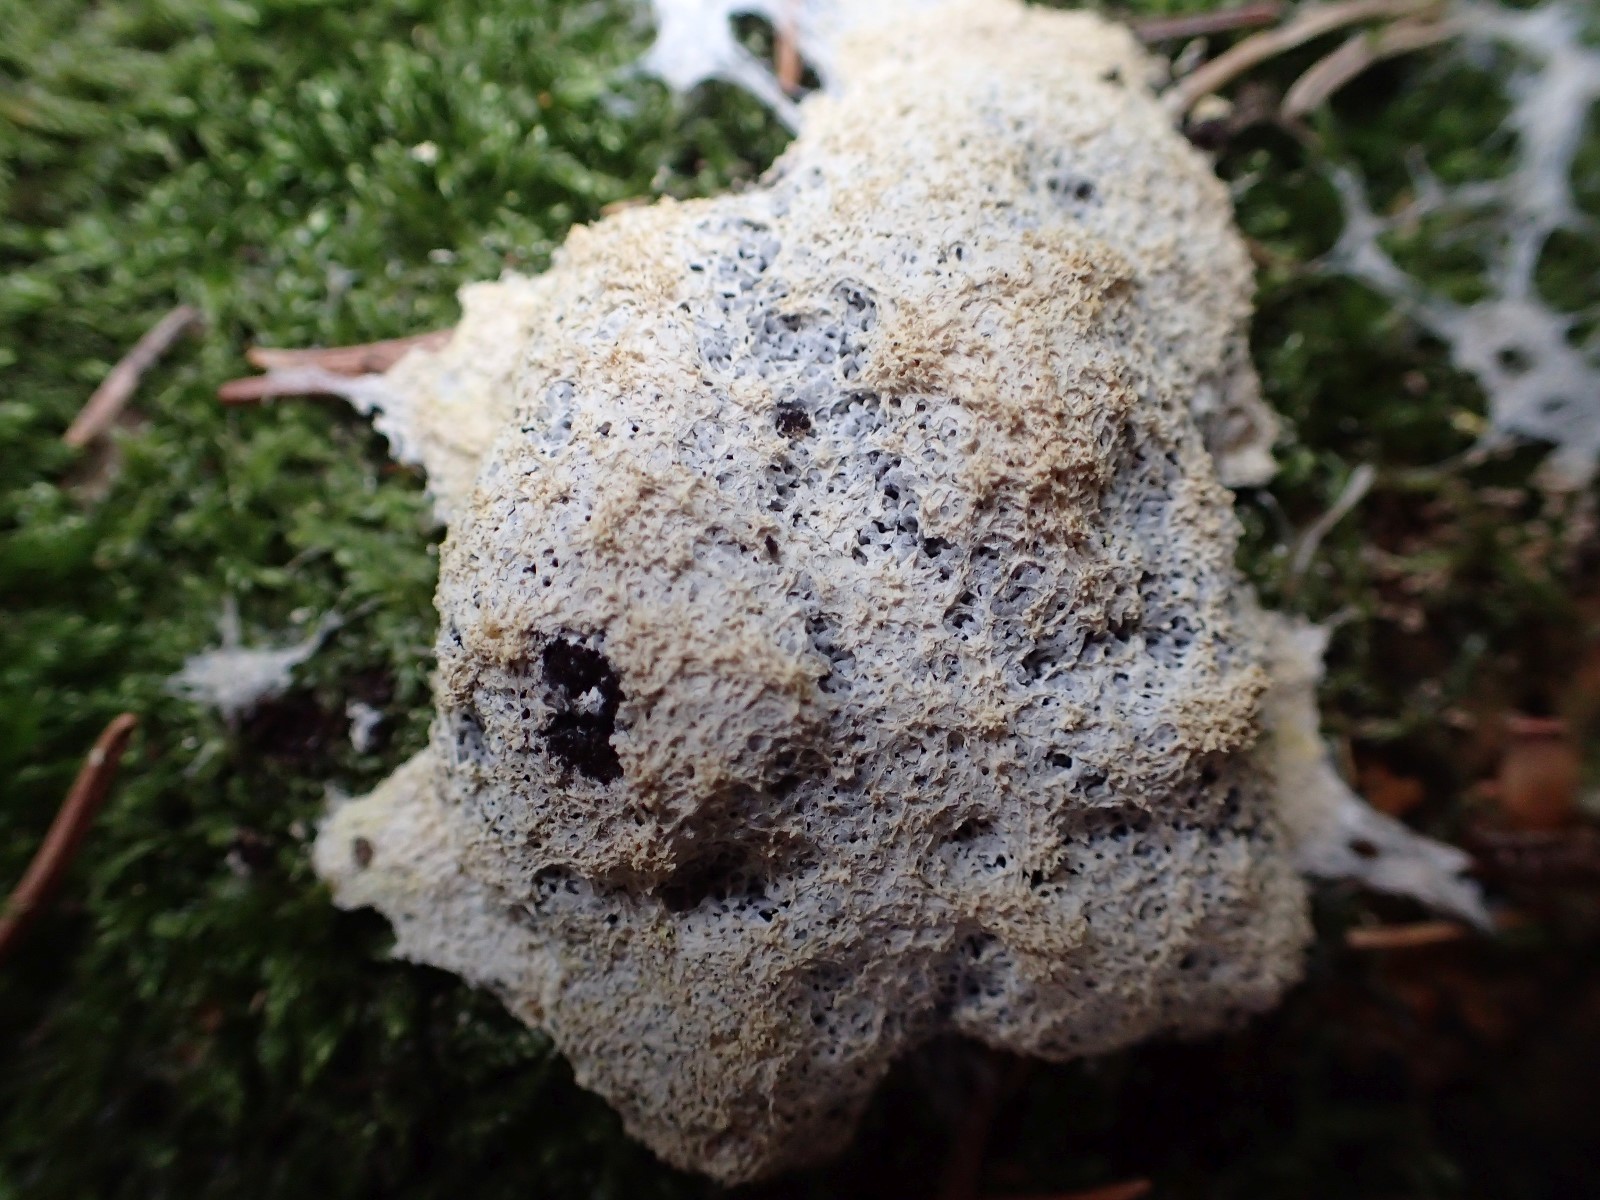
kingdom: Protozoa
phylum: Mycetozoa
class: Myxomycetes
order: Physarales
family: Physaraceae
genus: Fuligo
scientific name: Fuligo septica
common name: gul troldsmør
